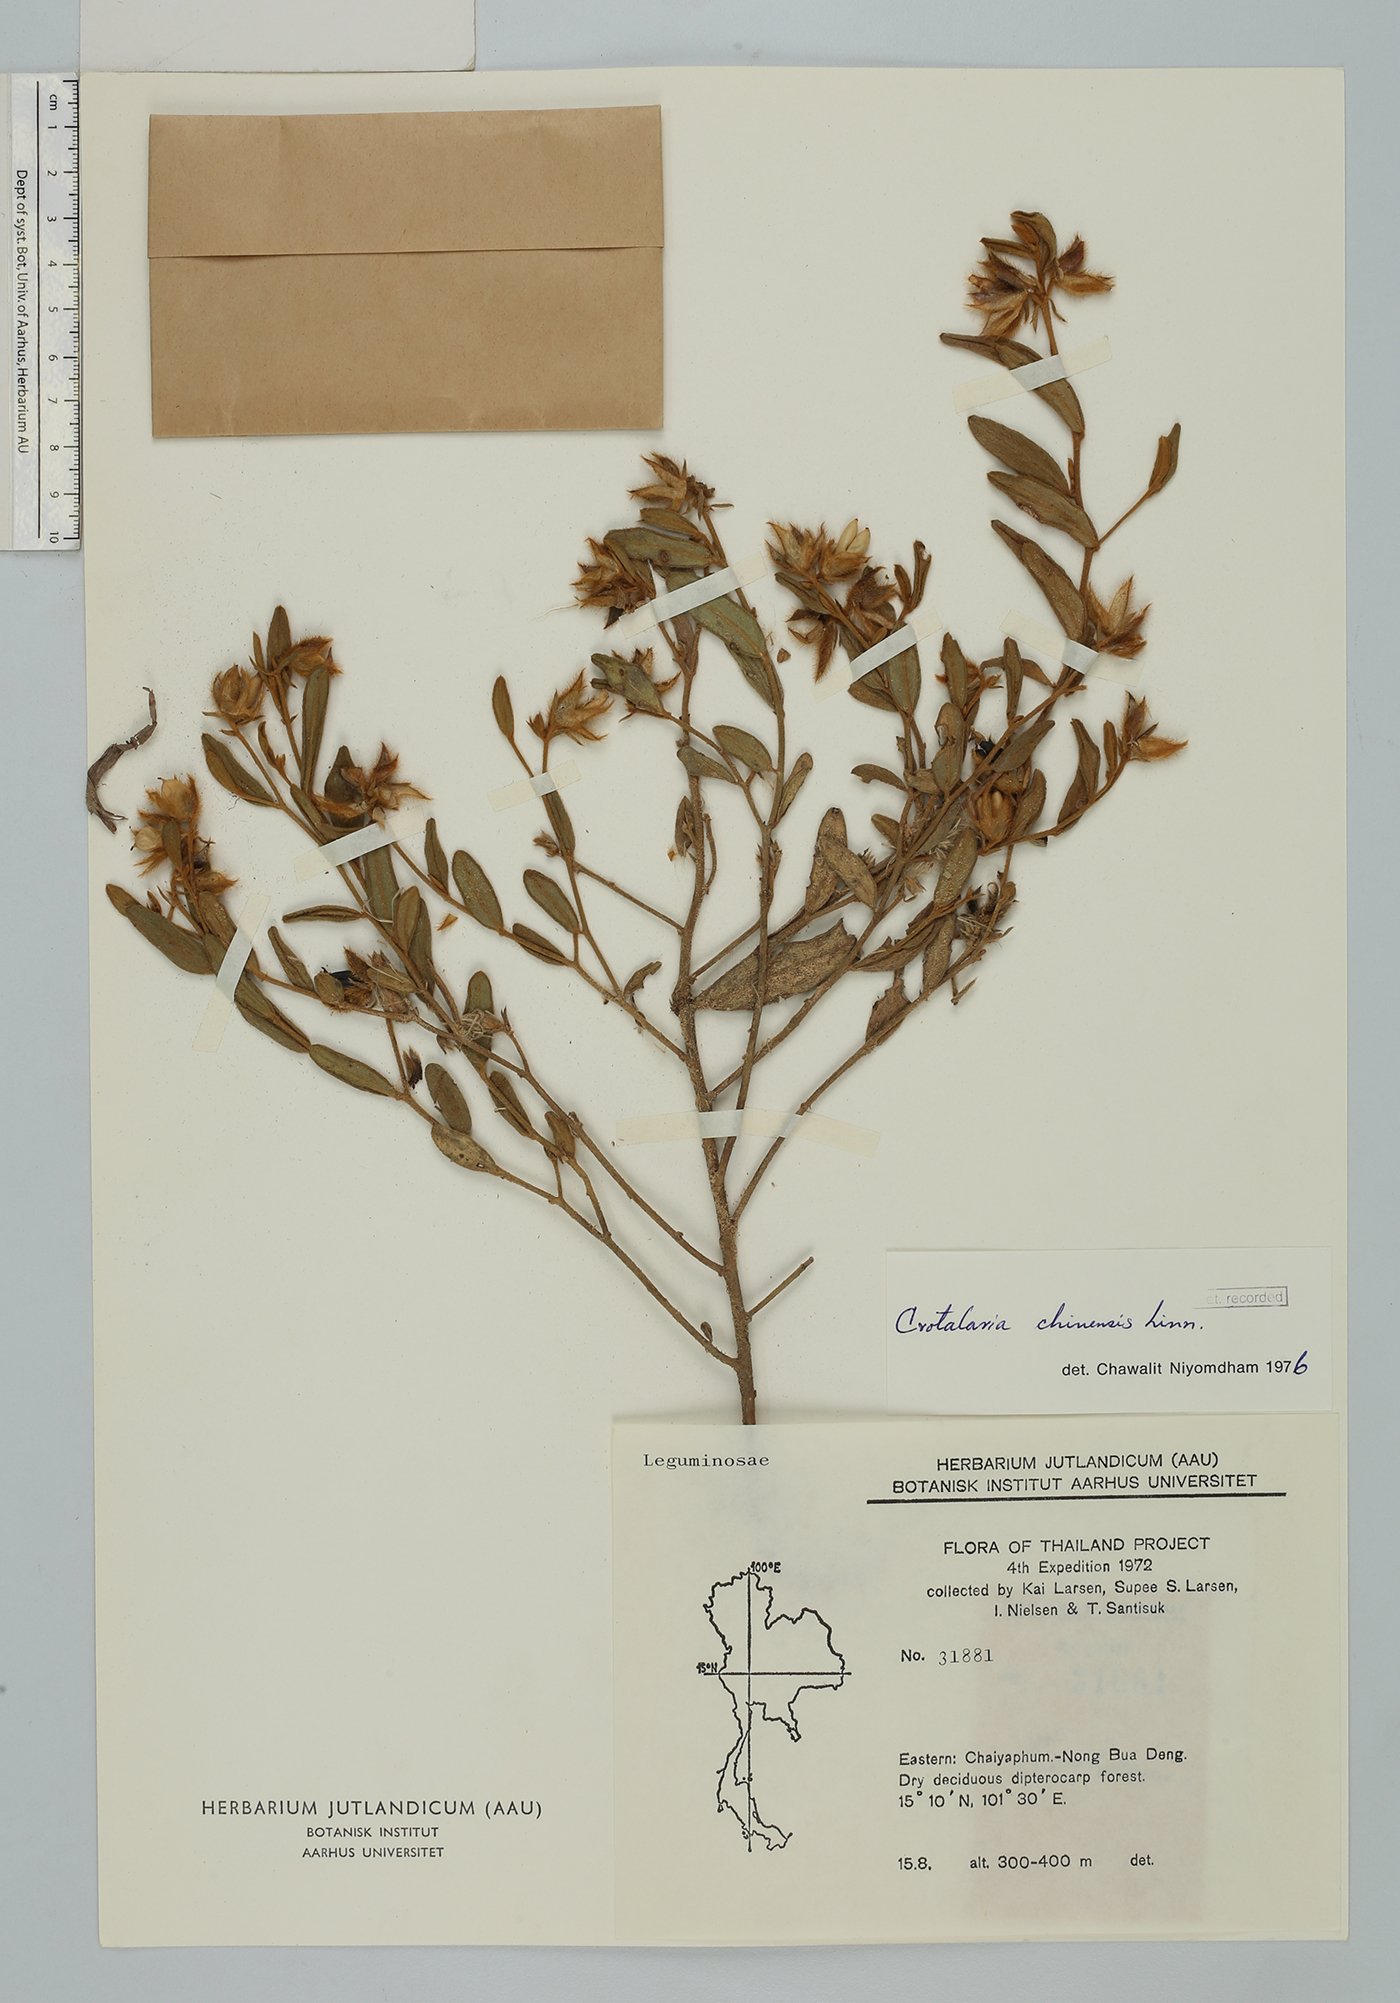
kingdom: Plantae
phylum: Tracheophyta
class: Magnoliopsida
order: Fabales
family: Fabaceae
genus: Crotalaria
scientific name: Crotalaria chinensis
